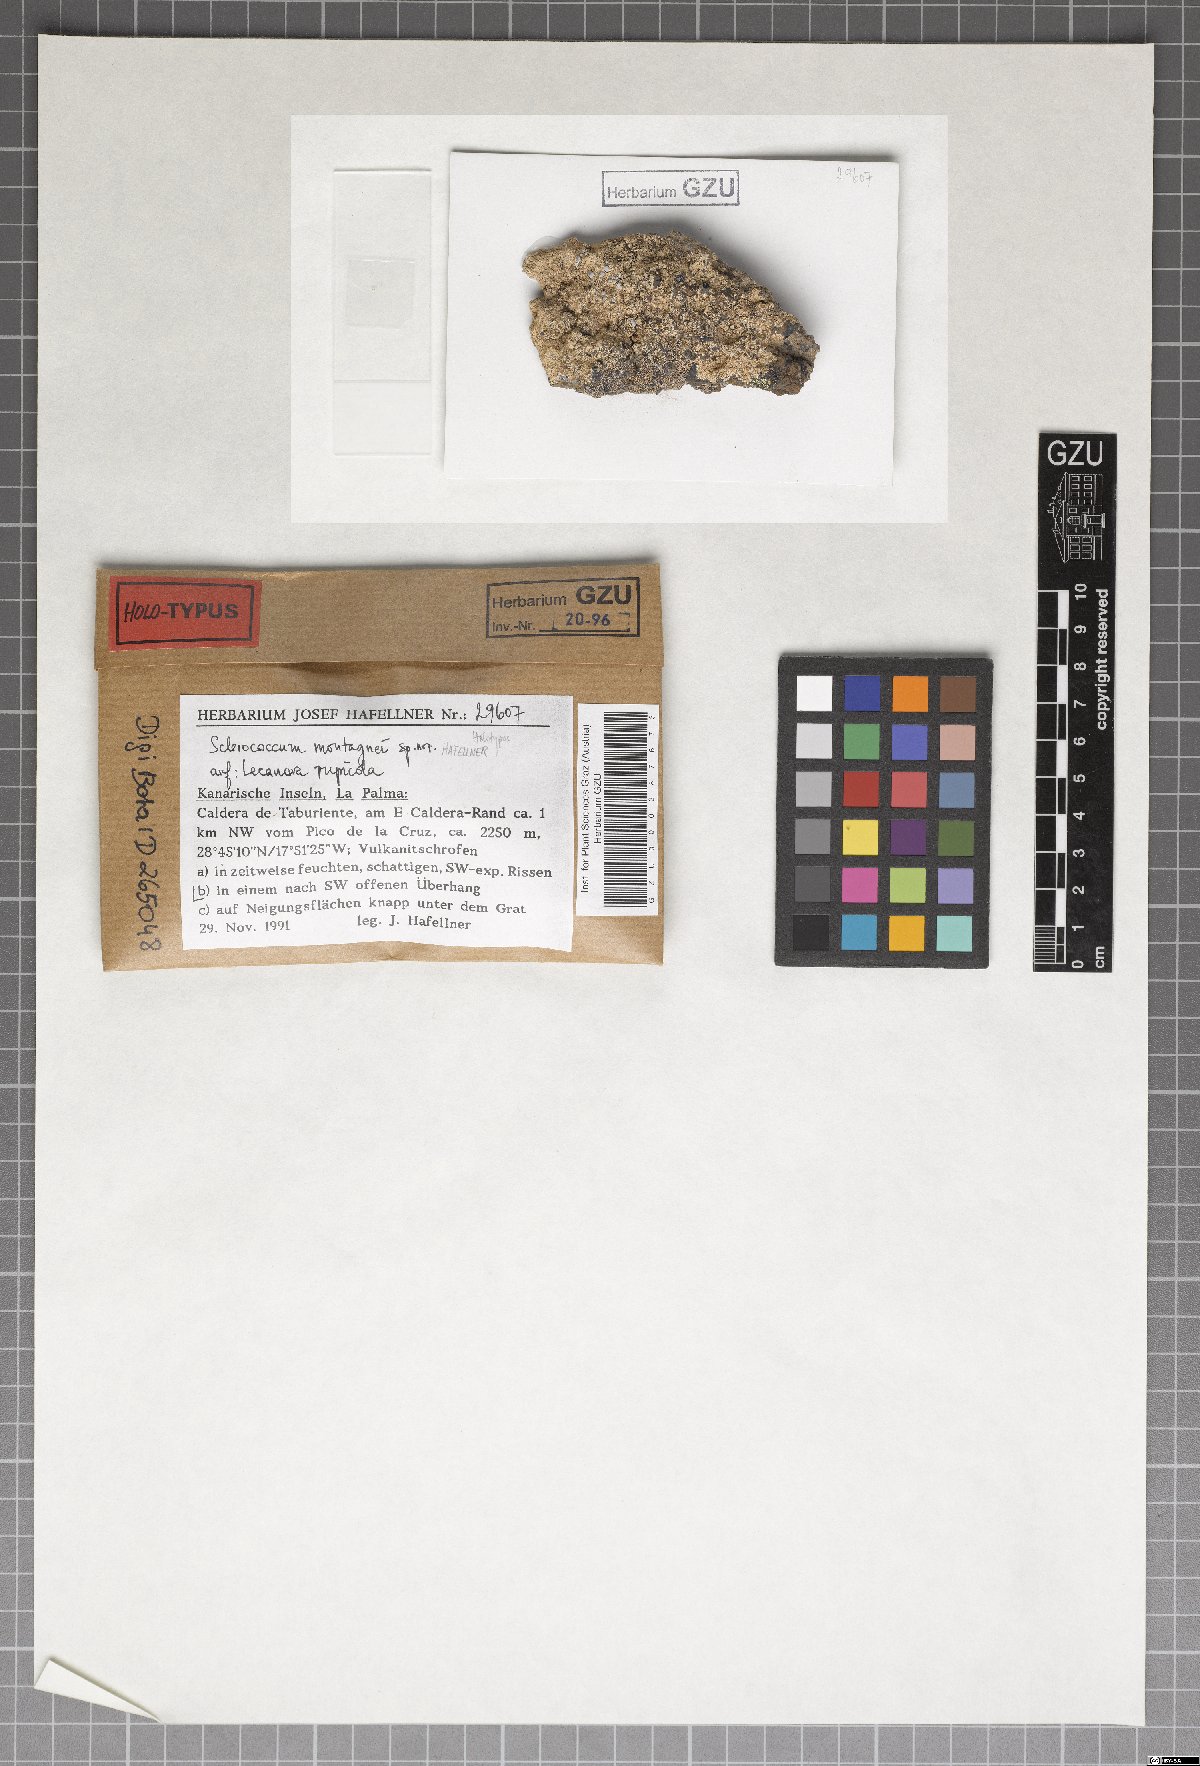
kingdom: Fungi
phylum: Ascomycota
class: Eurotiomycetes
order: Sclerococcales
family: Sclerococcaceae
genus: Sclerococcum
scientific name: Sclerococcum montagnei
